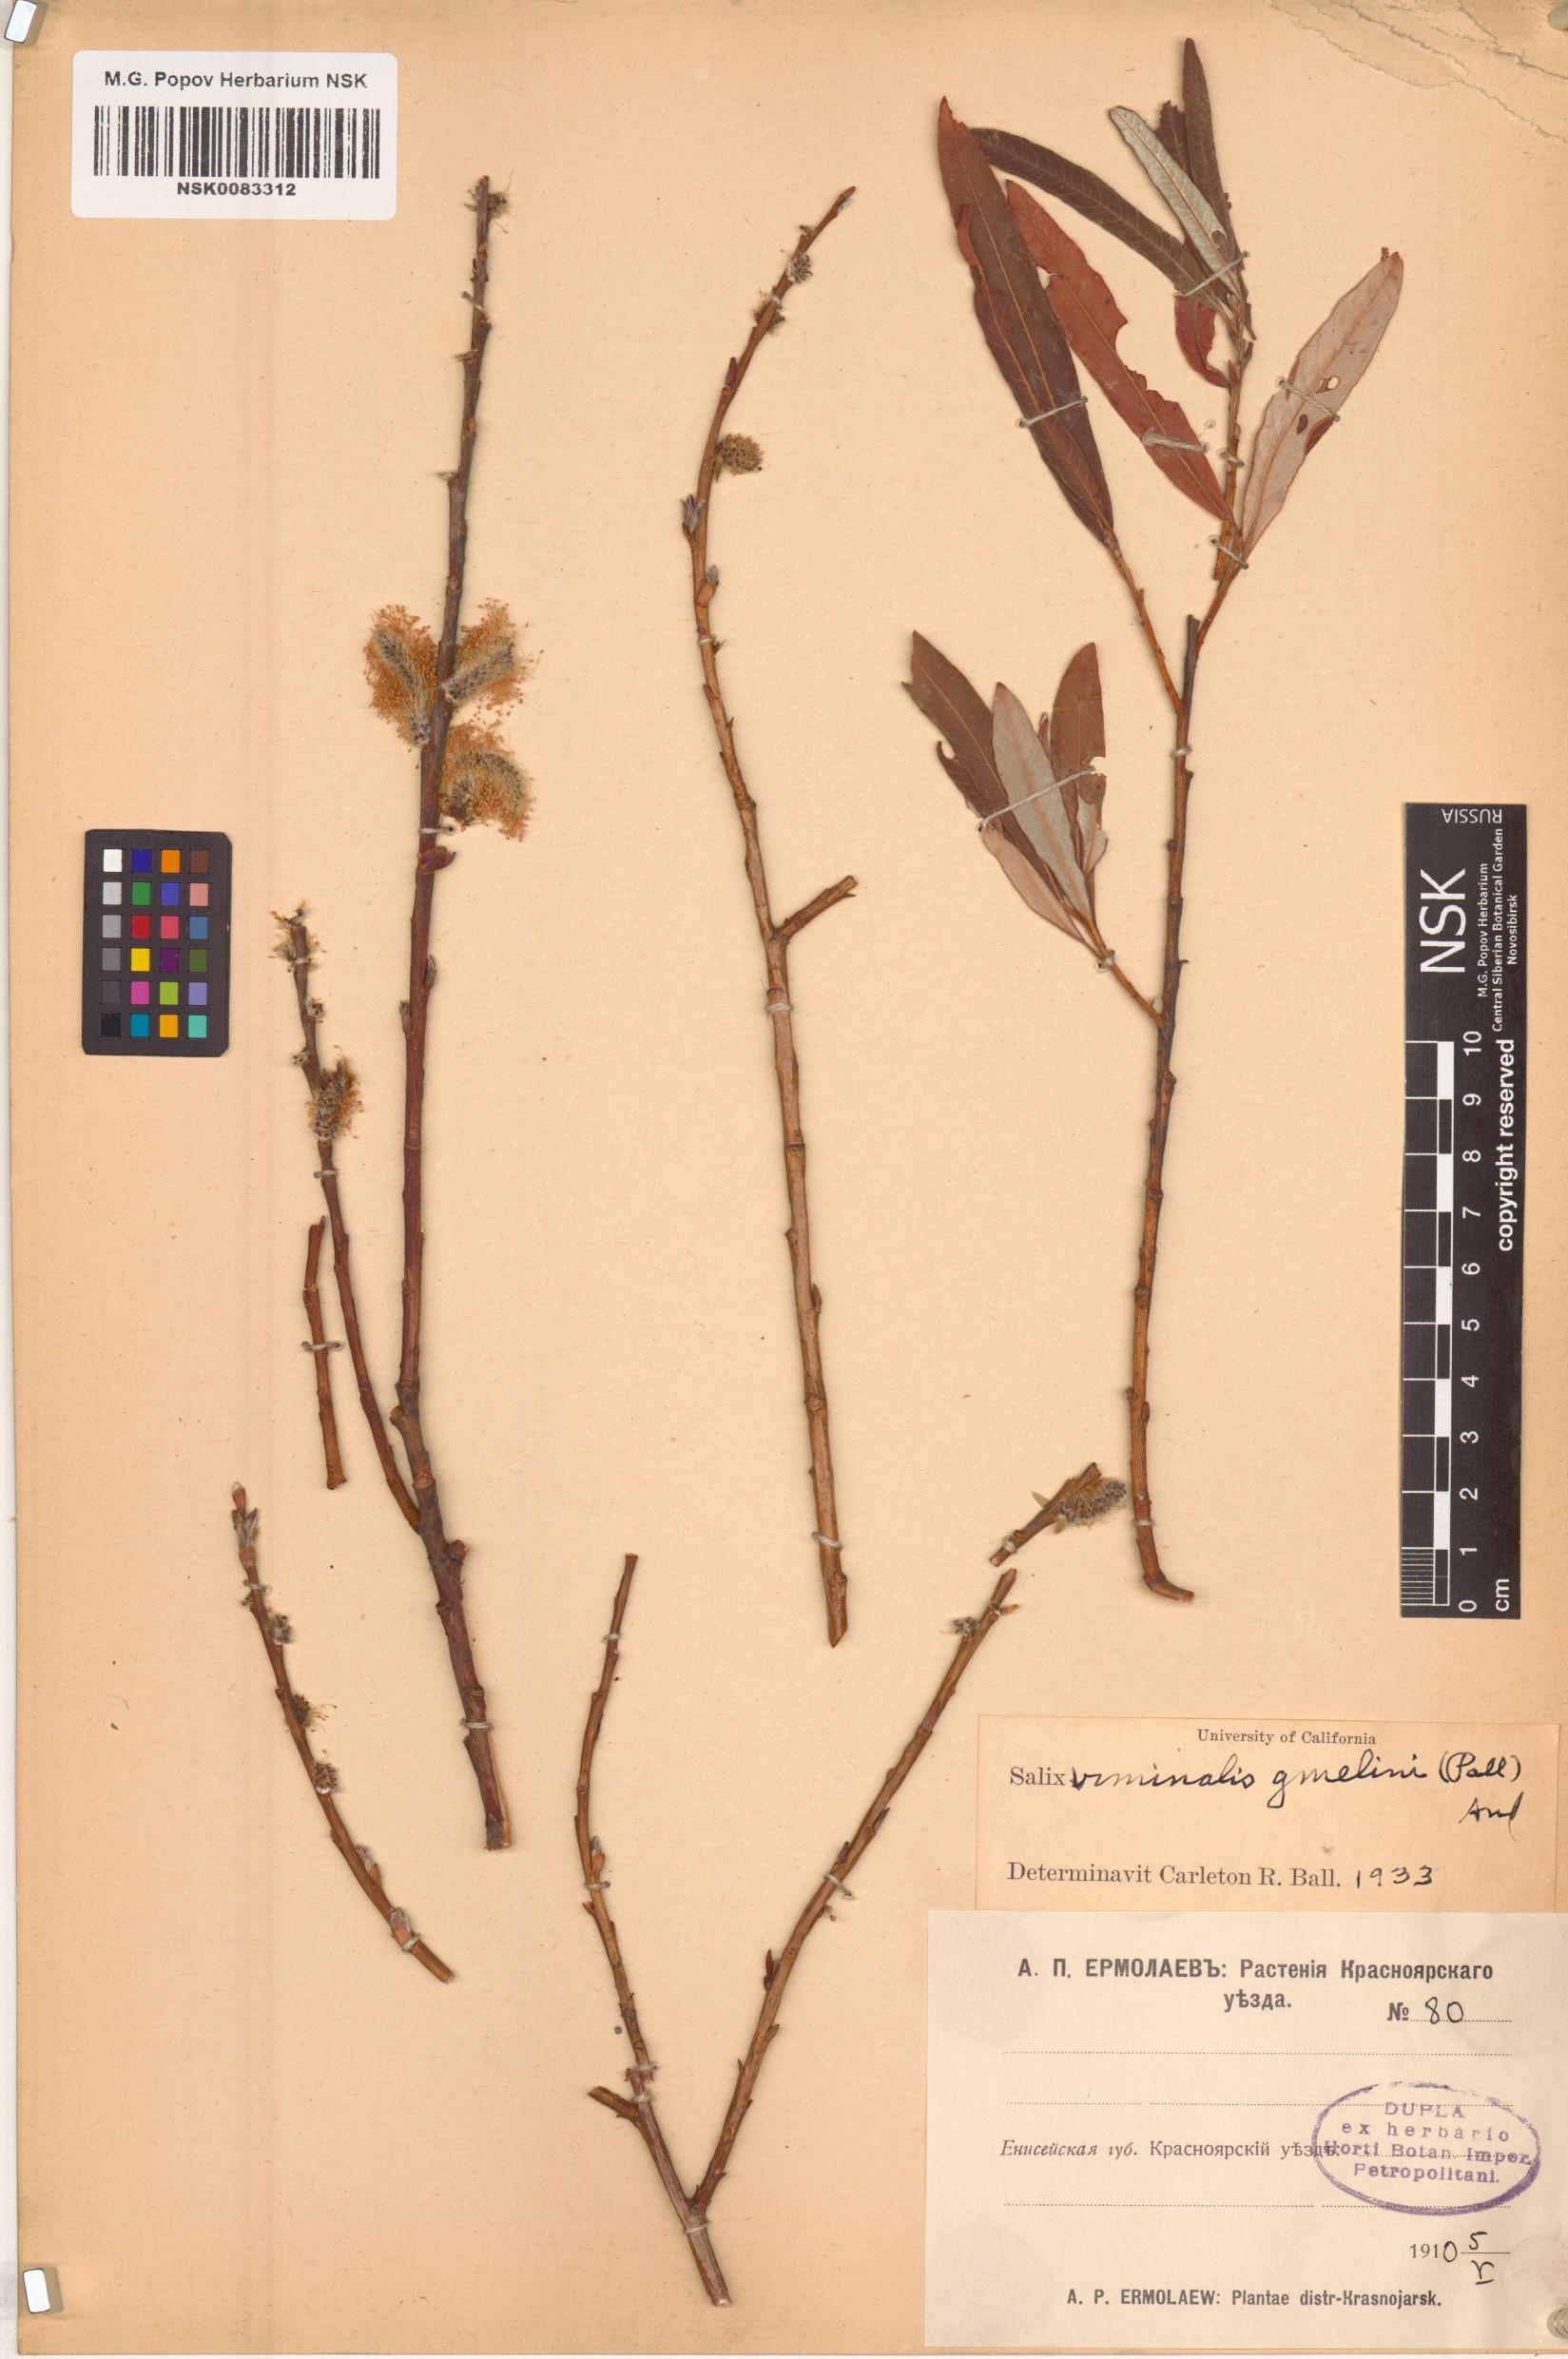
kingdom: Plantae
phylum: Tracheophyta
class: Magnoliopsida
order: Malpighiales
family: Salicaceae
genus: Salix
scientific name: Salix gmelinii
